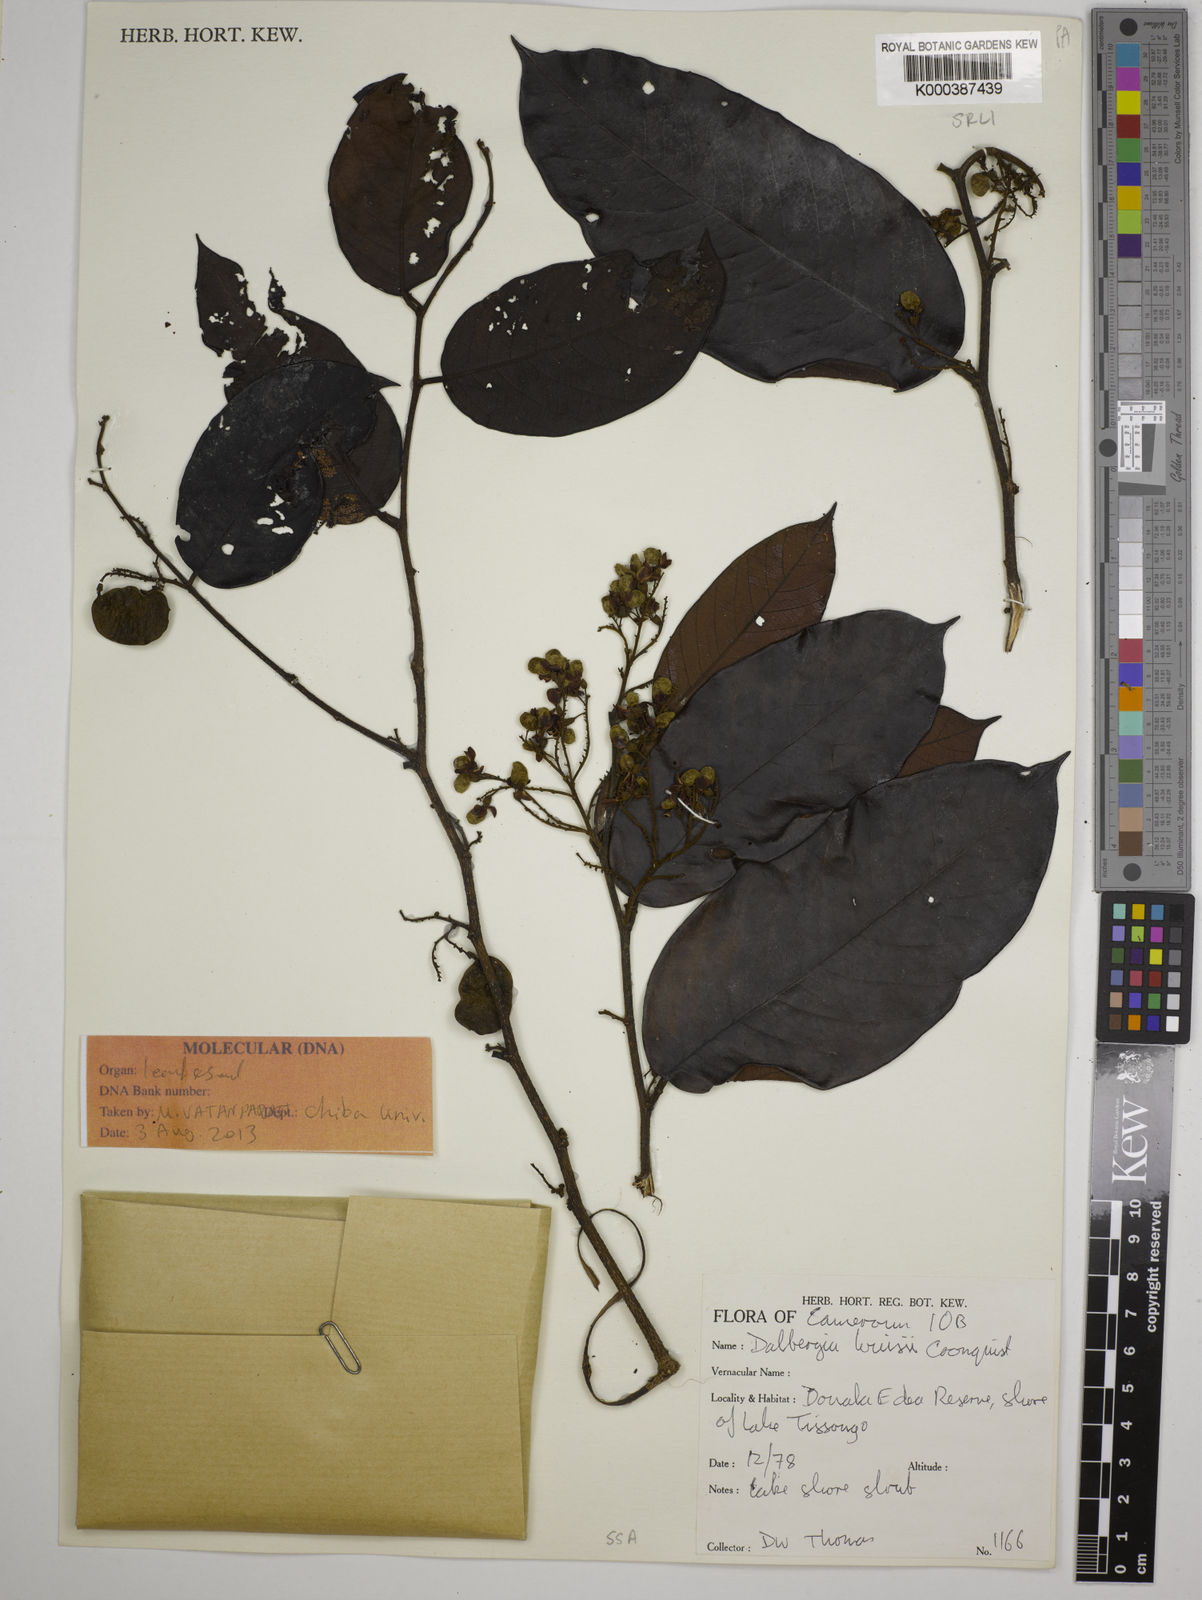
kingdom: Plantae
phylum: Tracheophyta
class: Magnoliopsida
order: Fabales
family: Fabaceae
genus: Dalbergia
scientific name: Dalbergia louisii
